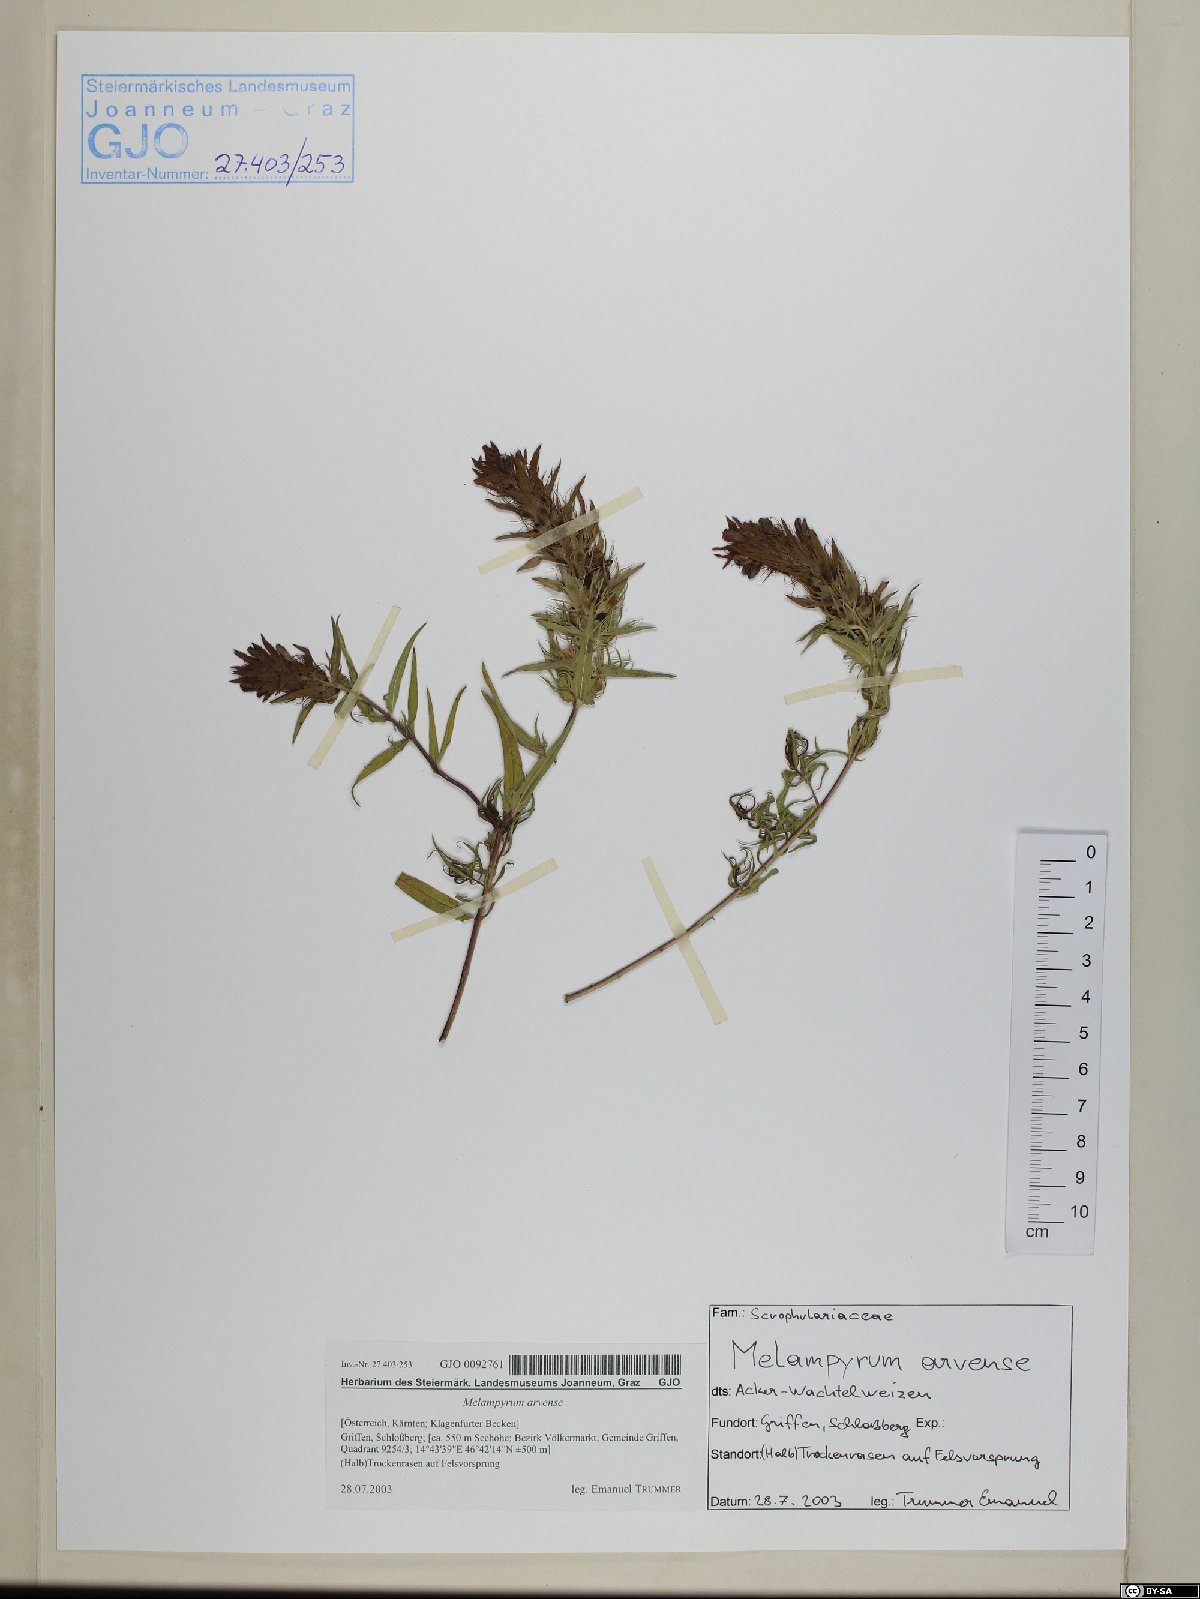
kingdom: Plantae
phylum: Tracheophyta
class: Magnoliopsida
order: Lamiales
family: Orobanchaceae
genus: Melampyrum
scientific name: Melampyrum arvense
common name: Field cow-wheat
